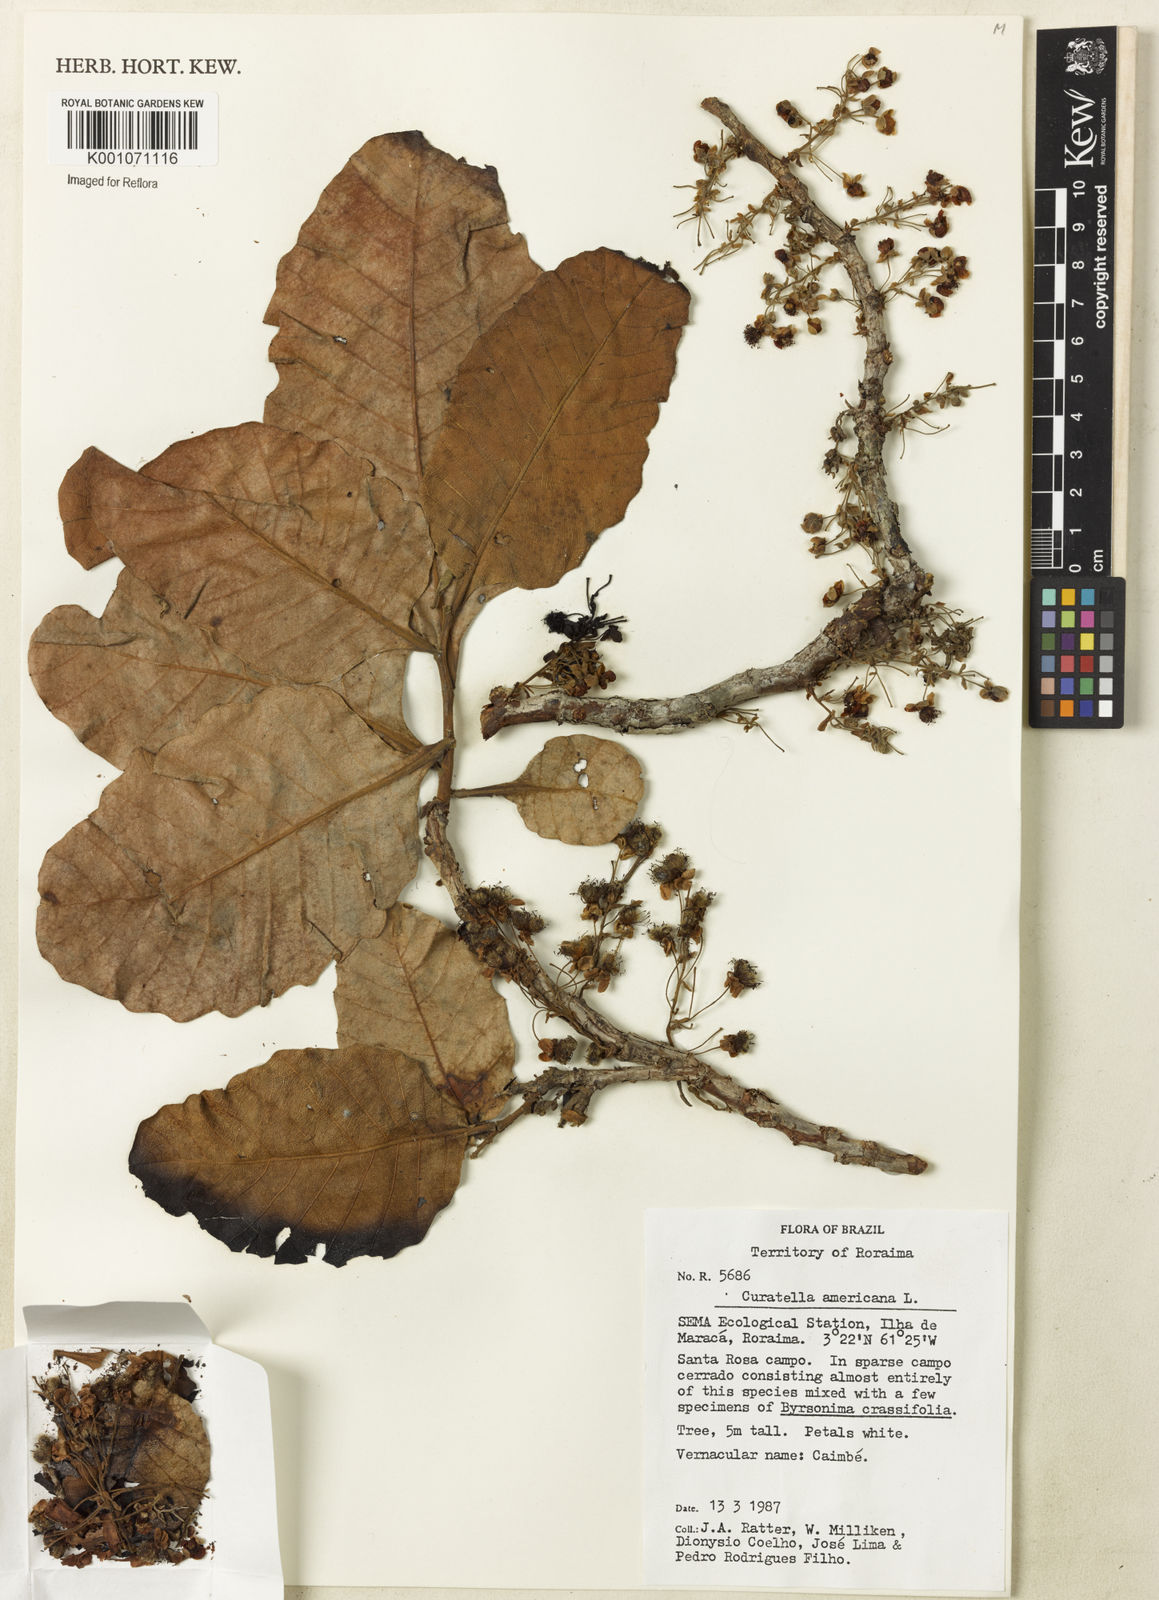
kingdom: Plantae
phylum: Tracheophyta
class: Magnoliopsida
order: Dilleniales
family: Dilleniaceae
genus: Curatella
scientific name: Curatella americana
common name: Sandpaper tree
